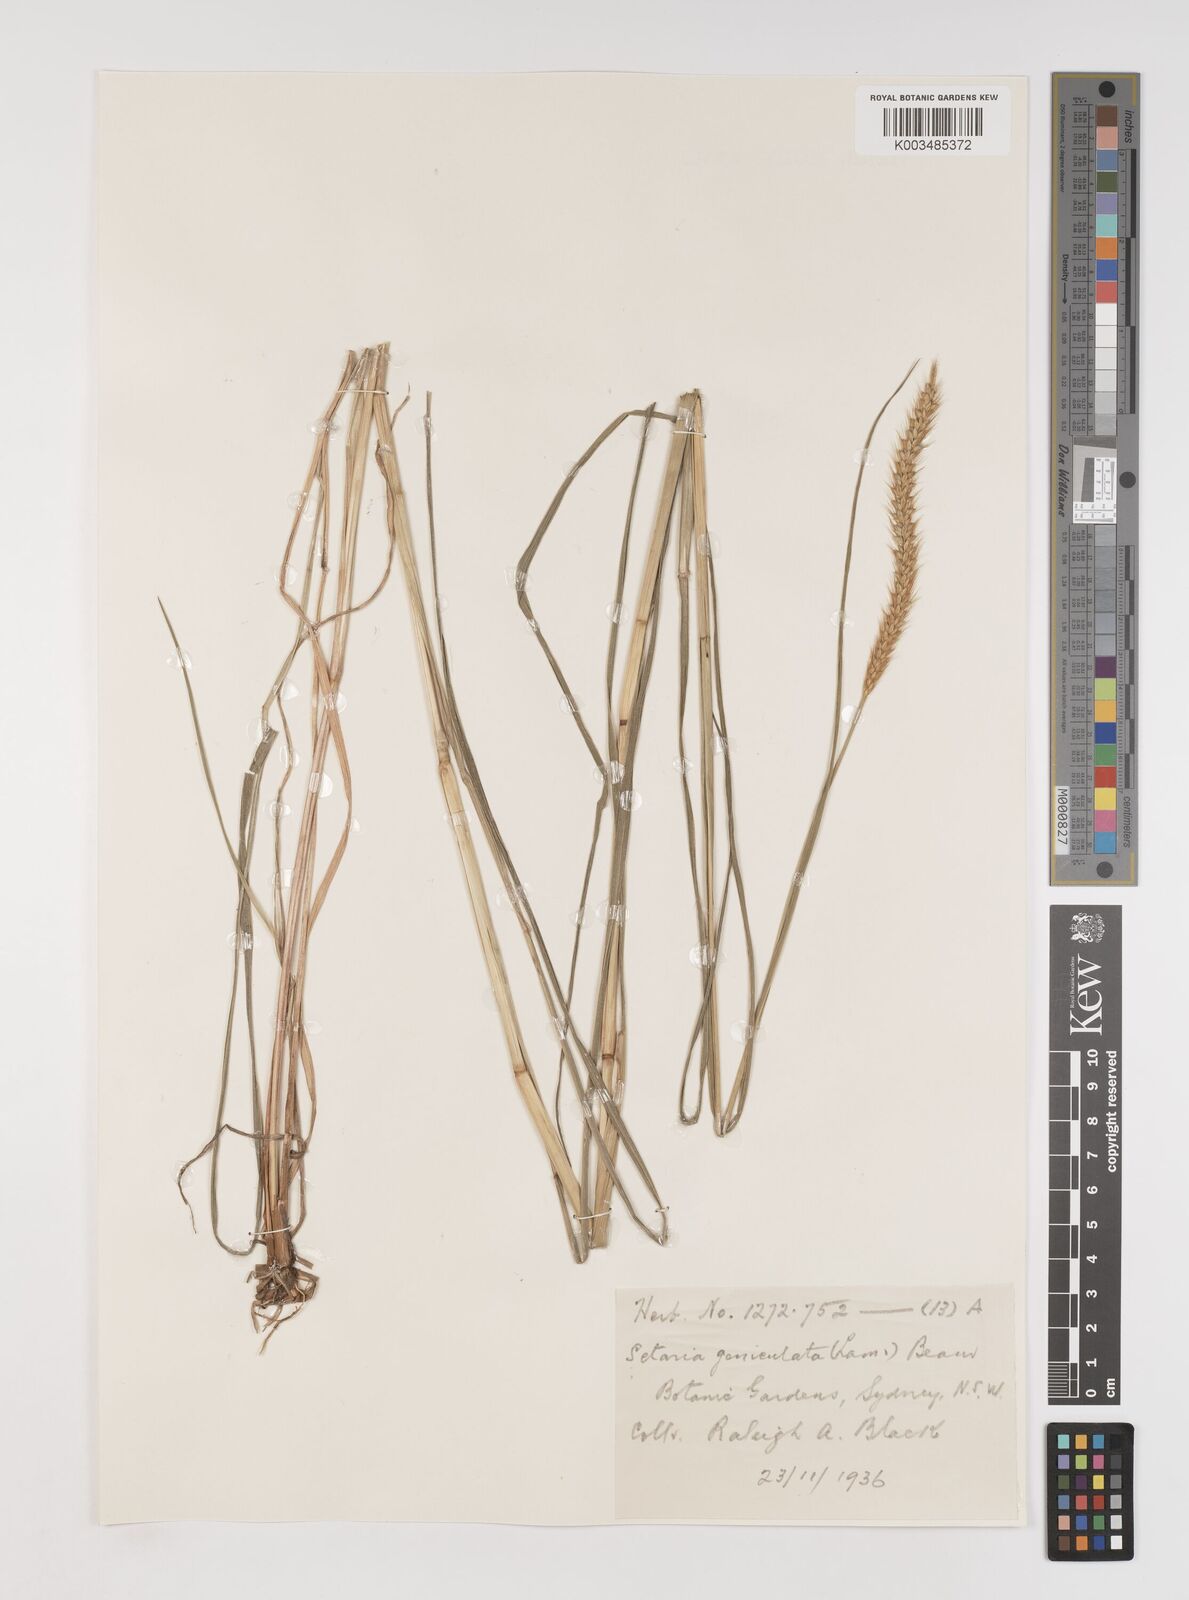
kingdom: Plantae
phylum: Tracheophyta
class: Liliopsida
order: Poales
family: Poaceae
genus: Setaria
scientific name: Setaria parviflora
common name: Knotroot bristle-grass
